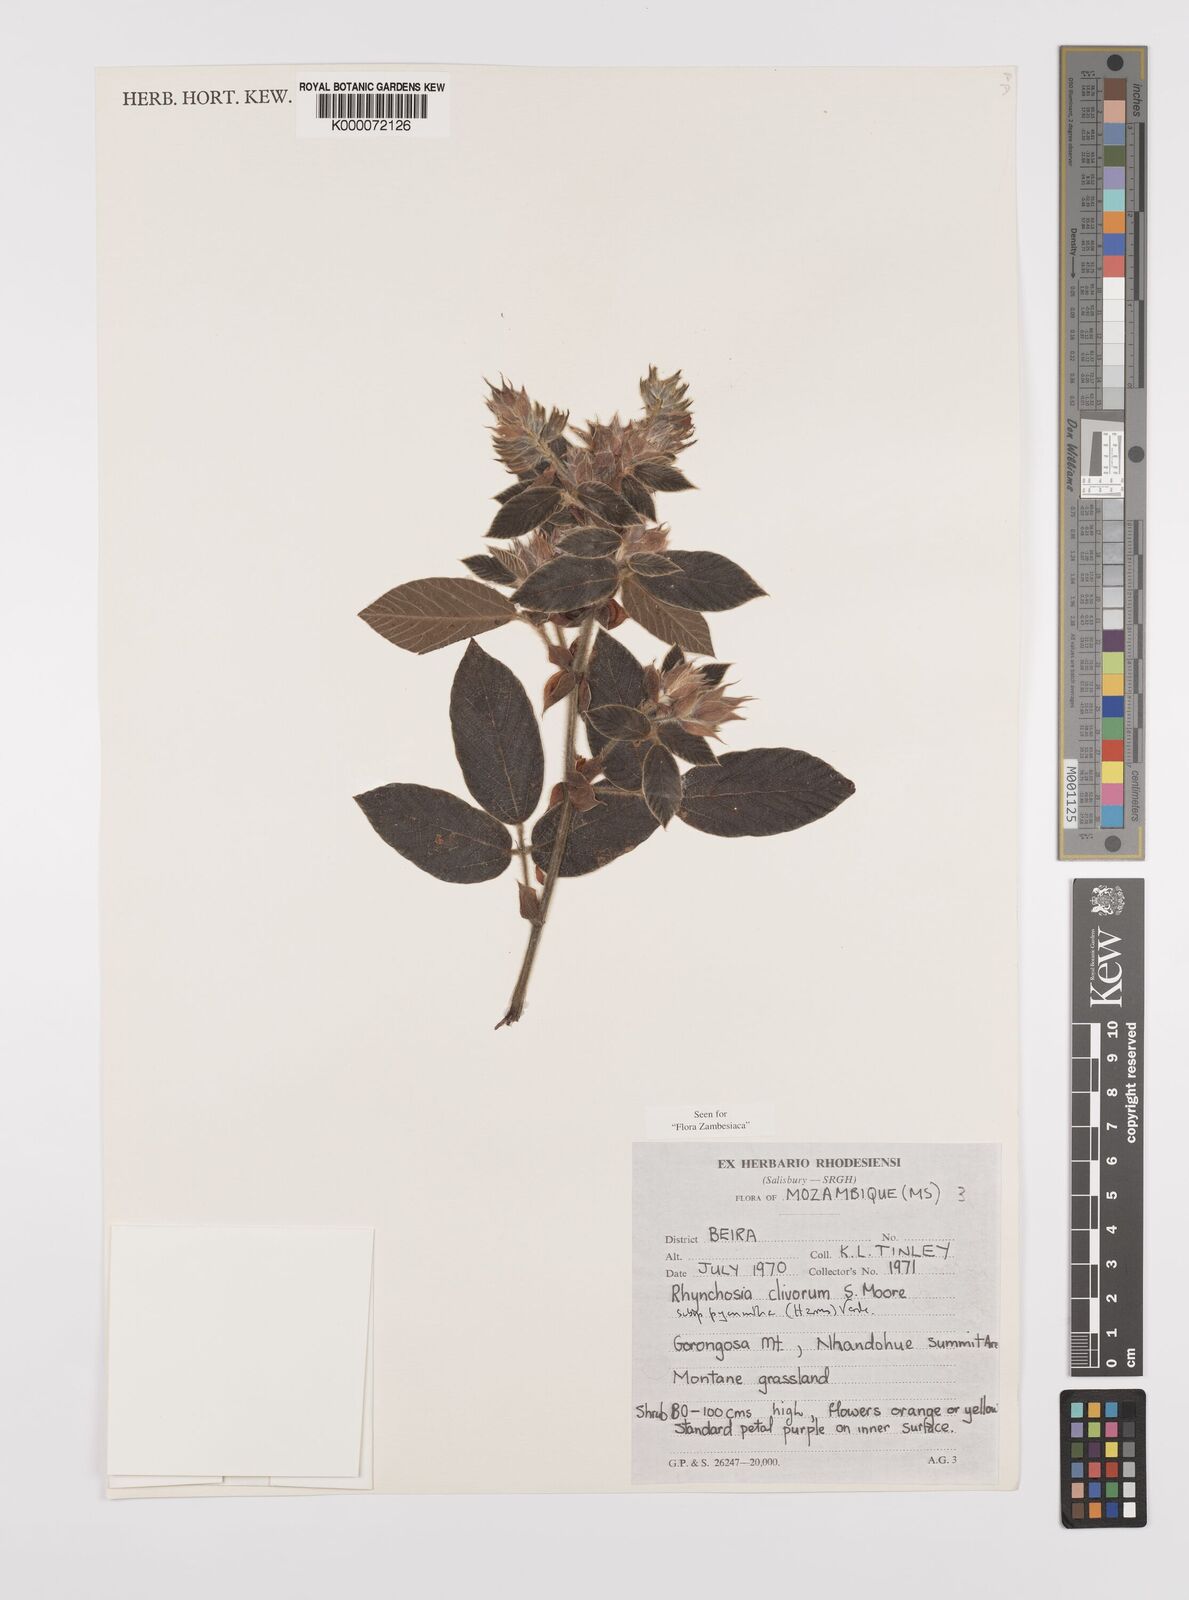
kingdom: Plantae
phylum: Tracheophyta
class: Magnoliopsida
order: Fabales
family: Fabaceae
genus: Rhynchosia
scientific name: Rhynchosia clivorum
